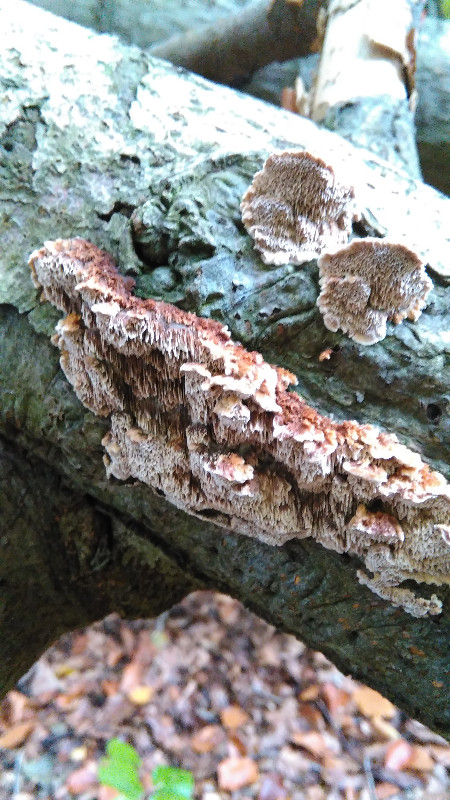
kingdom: Fungi
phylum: Basidiomycota
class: Agaricomycetes
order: Hymenochaetales
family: Hymenochaetaceae
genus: Mensularia
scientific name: Mensularia nodulosa
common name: bøge-spejlporesvamp
